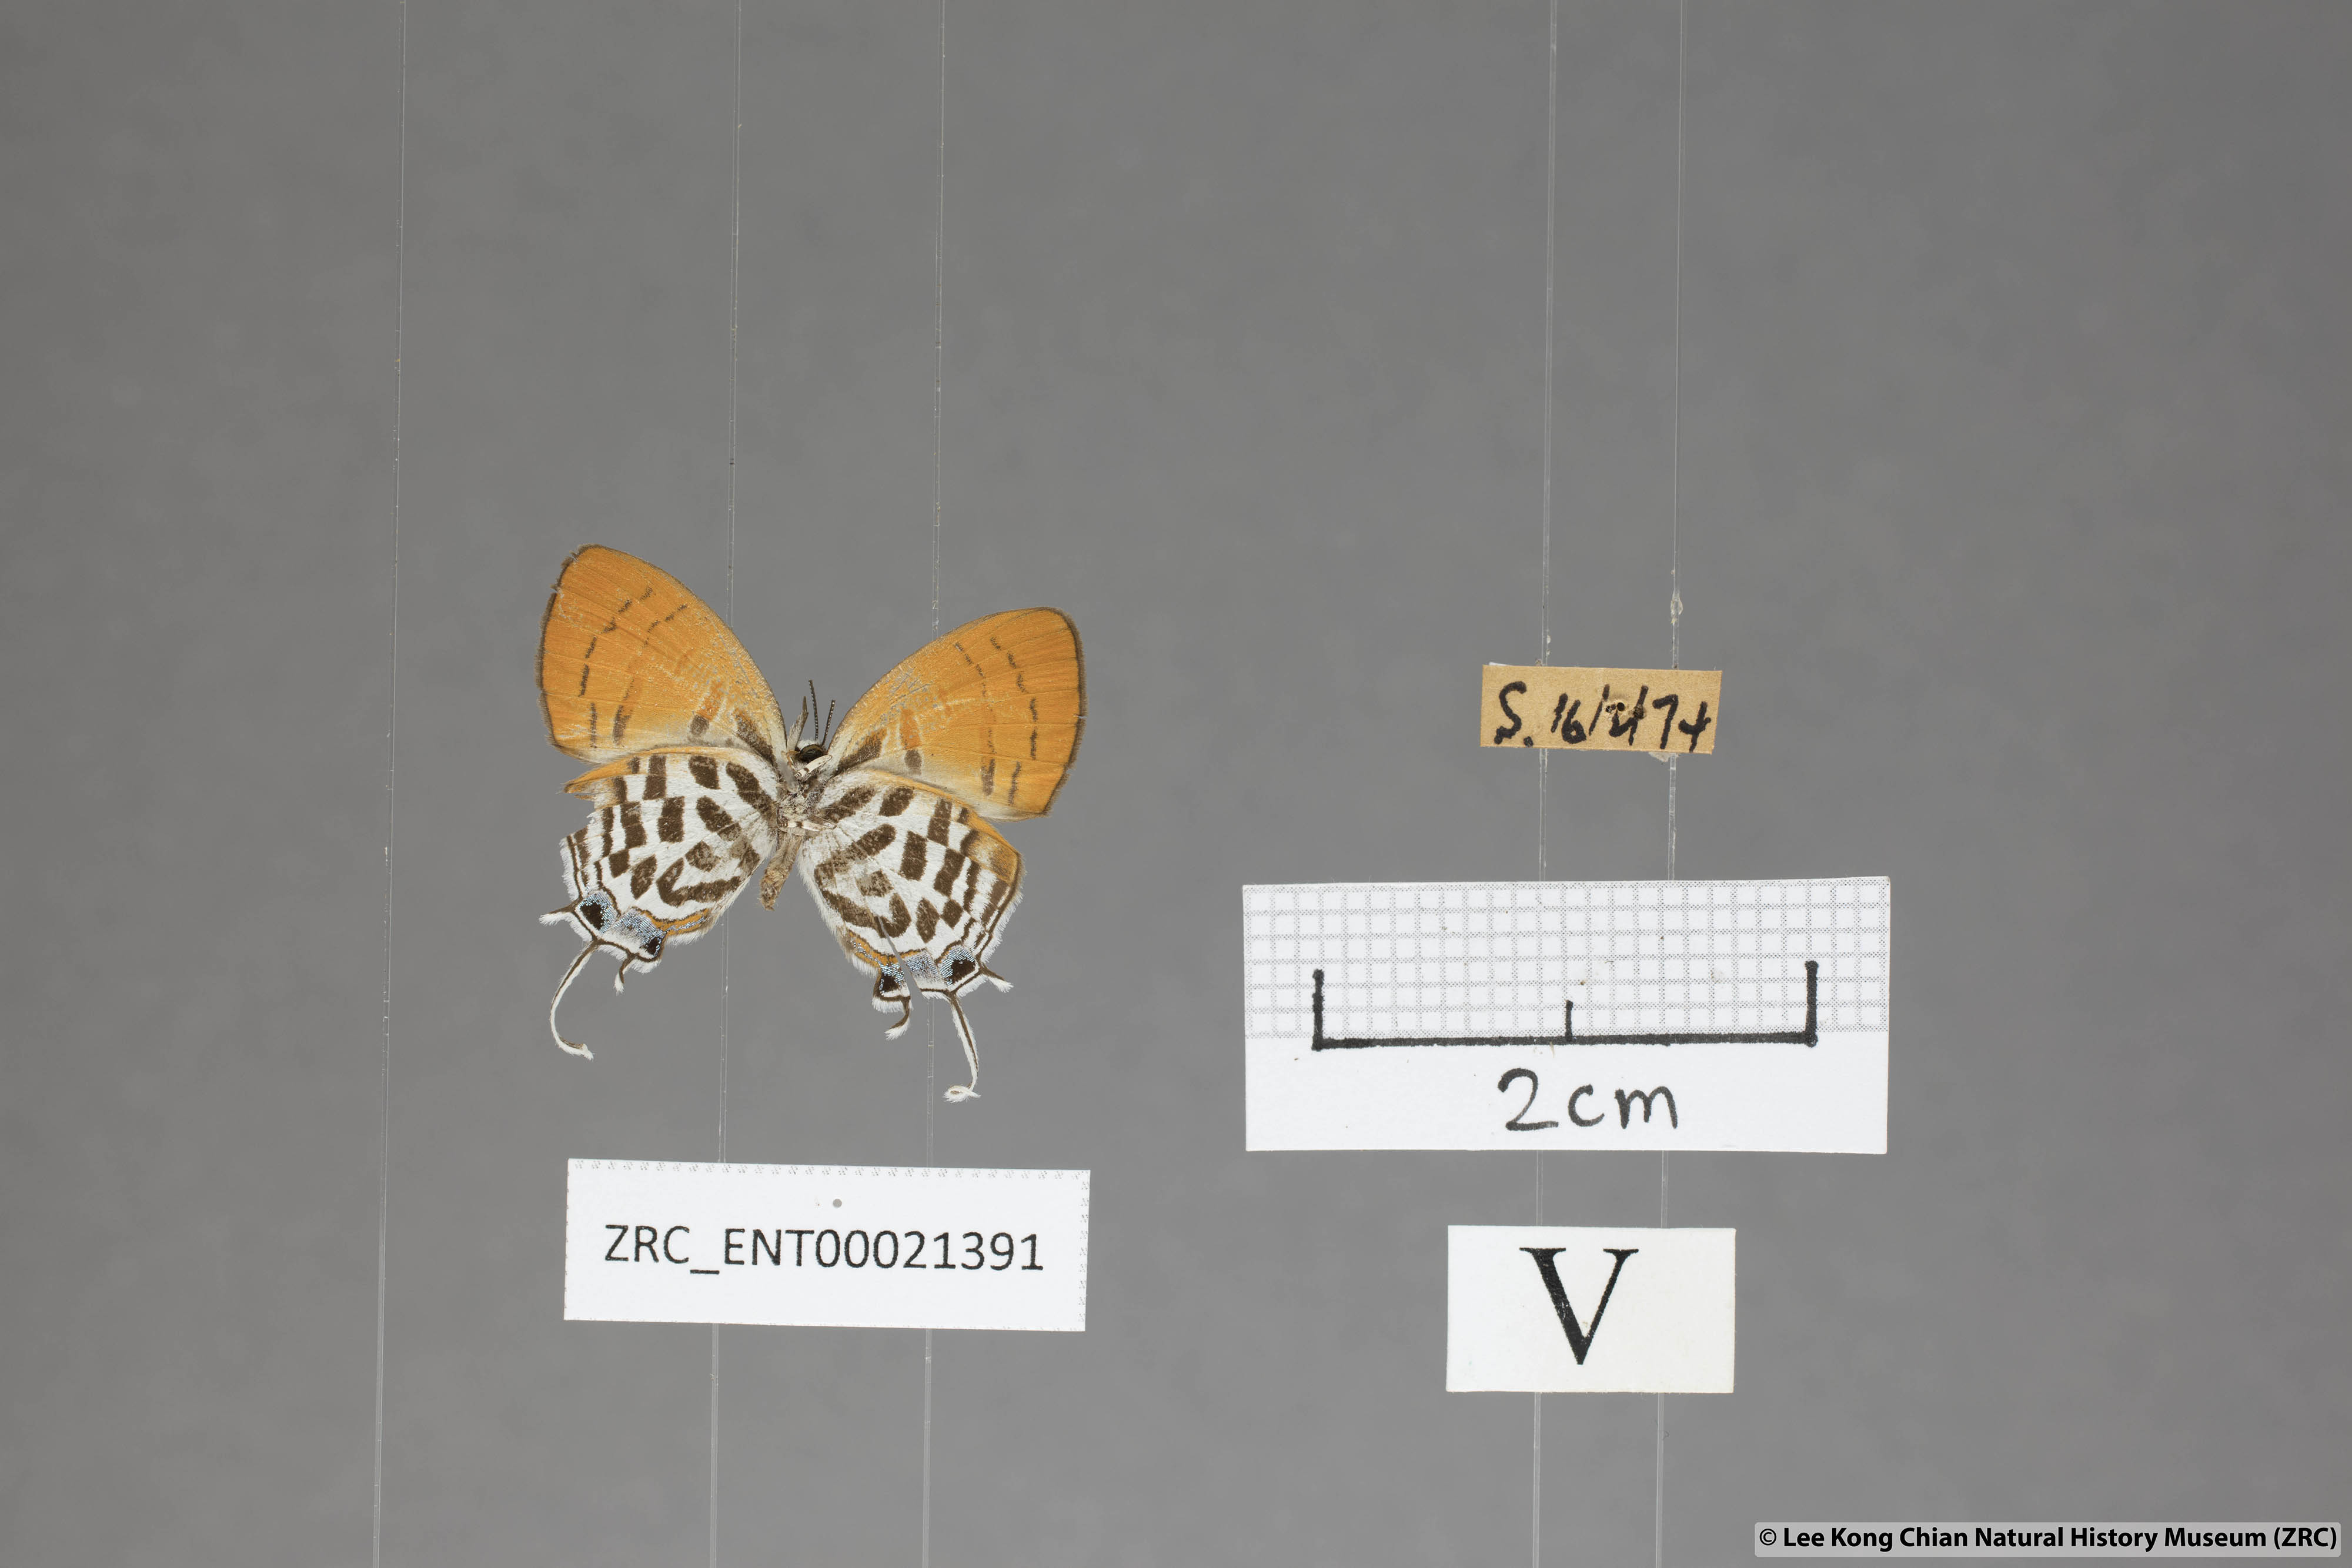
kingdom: Animalia
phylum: Arthropoda
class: Insecta
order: Lepidoptera
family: Lycaenidae
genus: Drupadia
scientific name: Drupadia rufotaenia
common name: Pygmy posy
